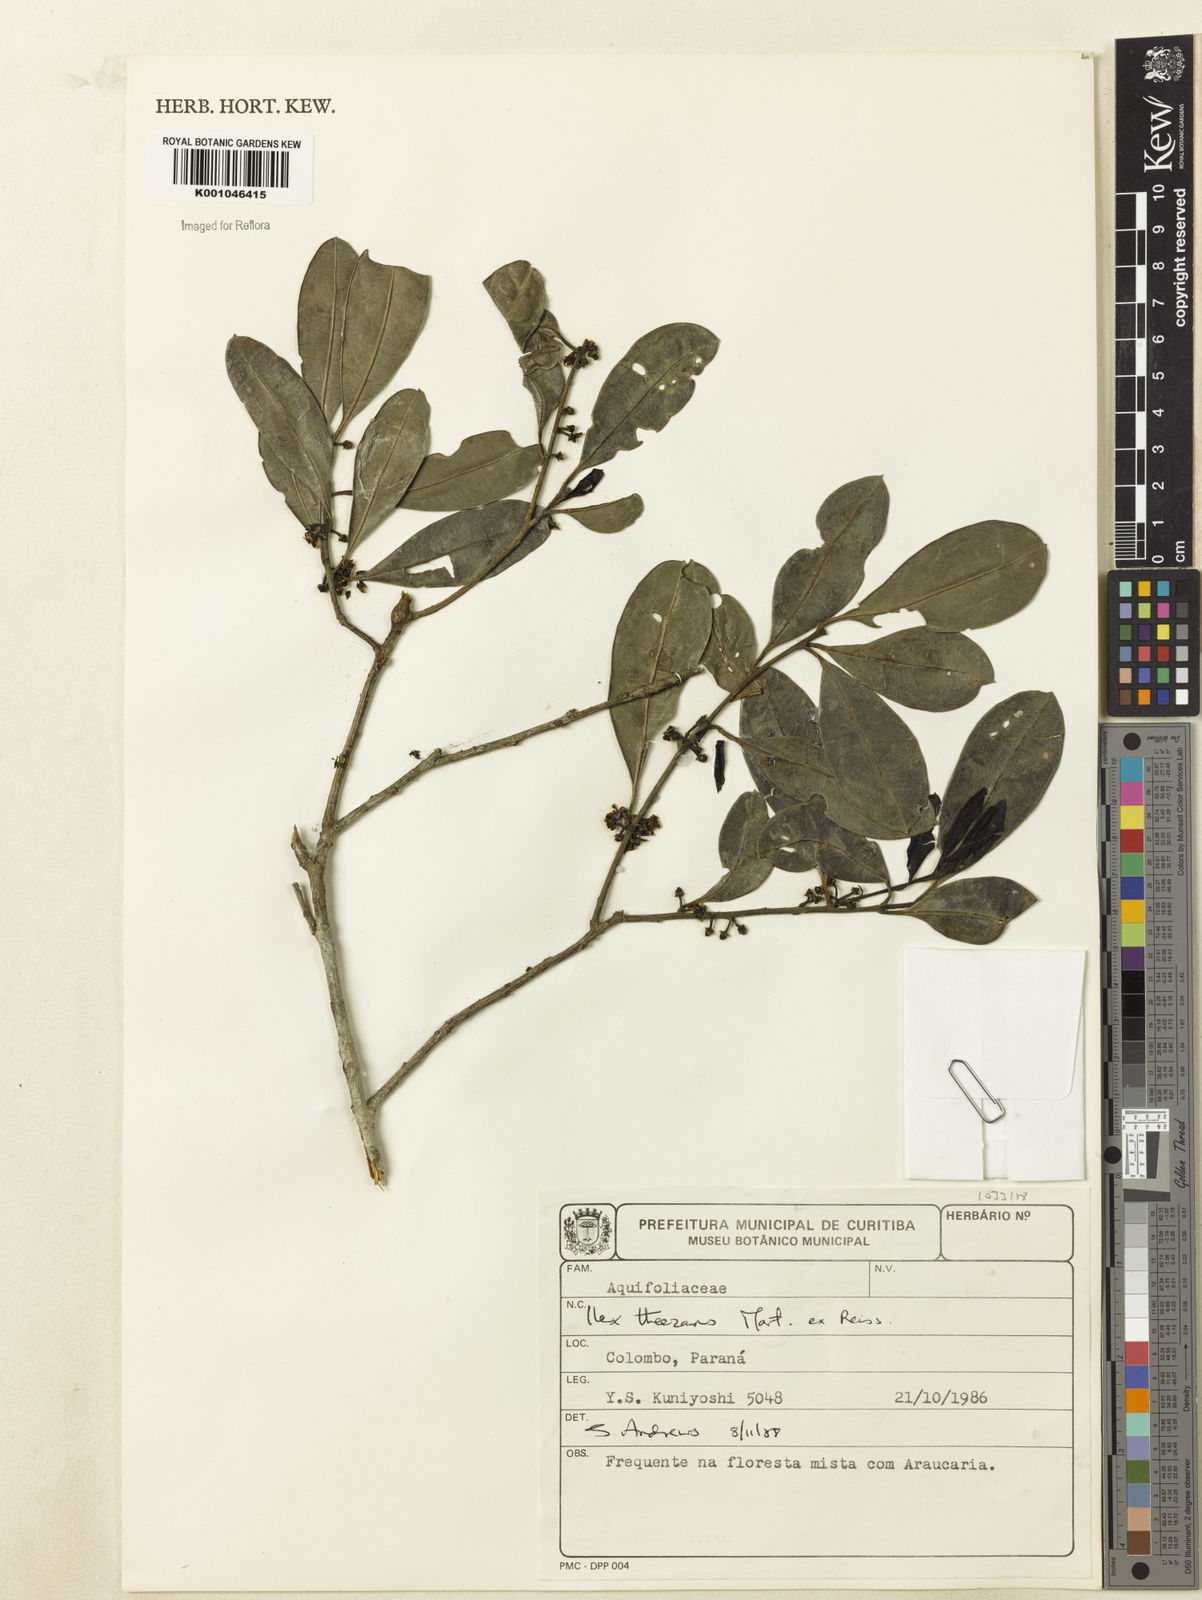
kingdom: Plantae
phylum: Tracheophyta
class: Magnoliopsida
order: Aquifoliales
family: Aquifoliaceae
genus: Ilex
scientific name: Ilex paraguariensis
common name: Paraguay tea
